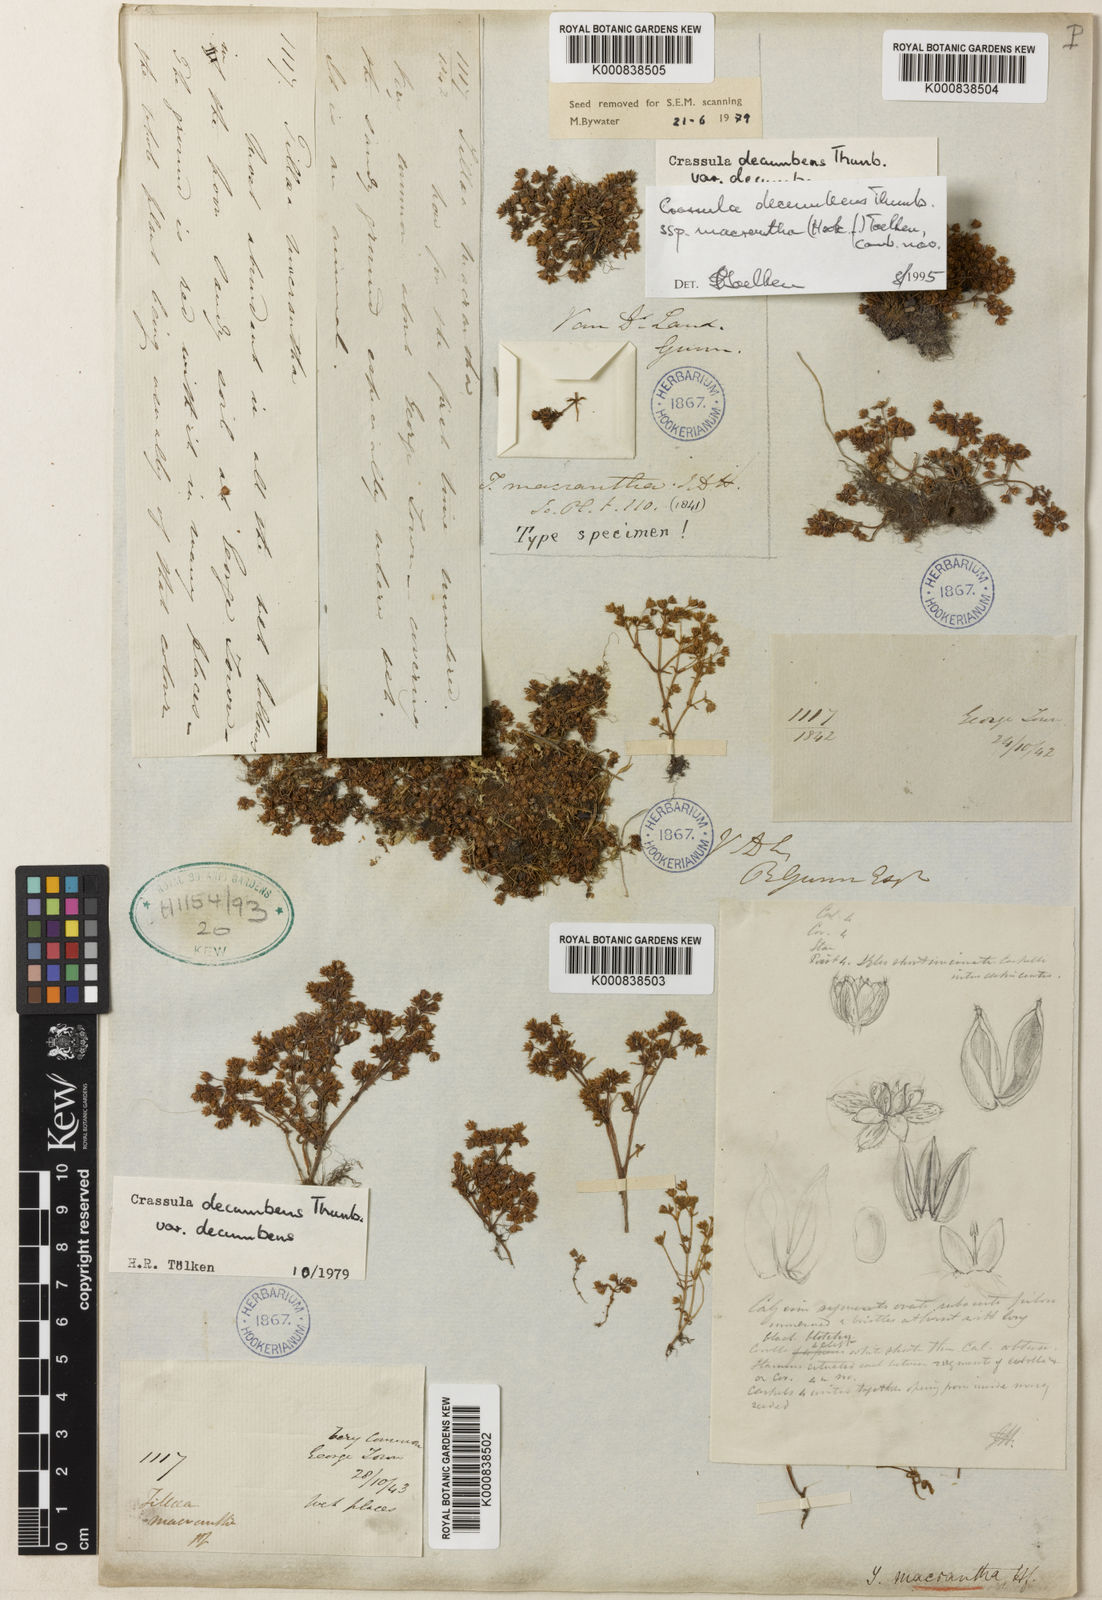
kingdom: Plantae
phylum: Tracheophyta
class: Magnoliopsida
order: Saxifragales
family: Crassulaceae
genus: Crassula
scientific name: Crassula decumbens
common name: Scilly pigmyweed
